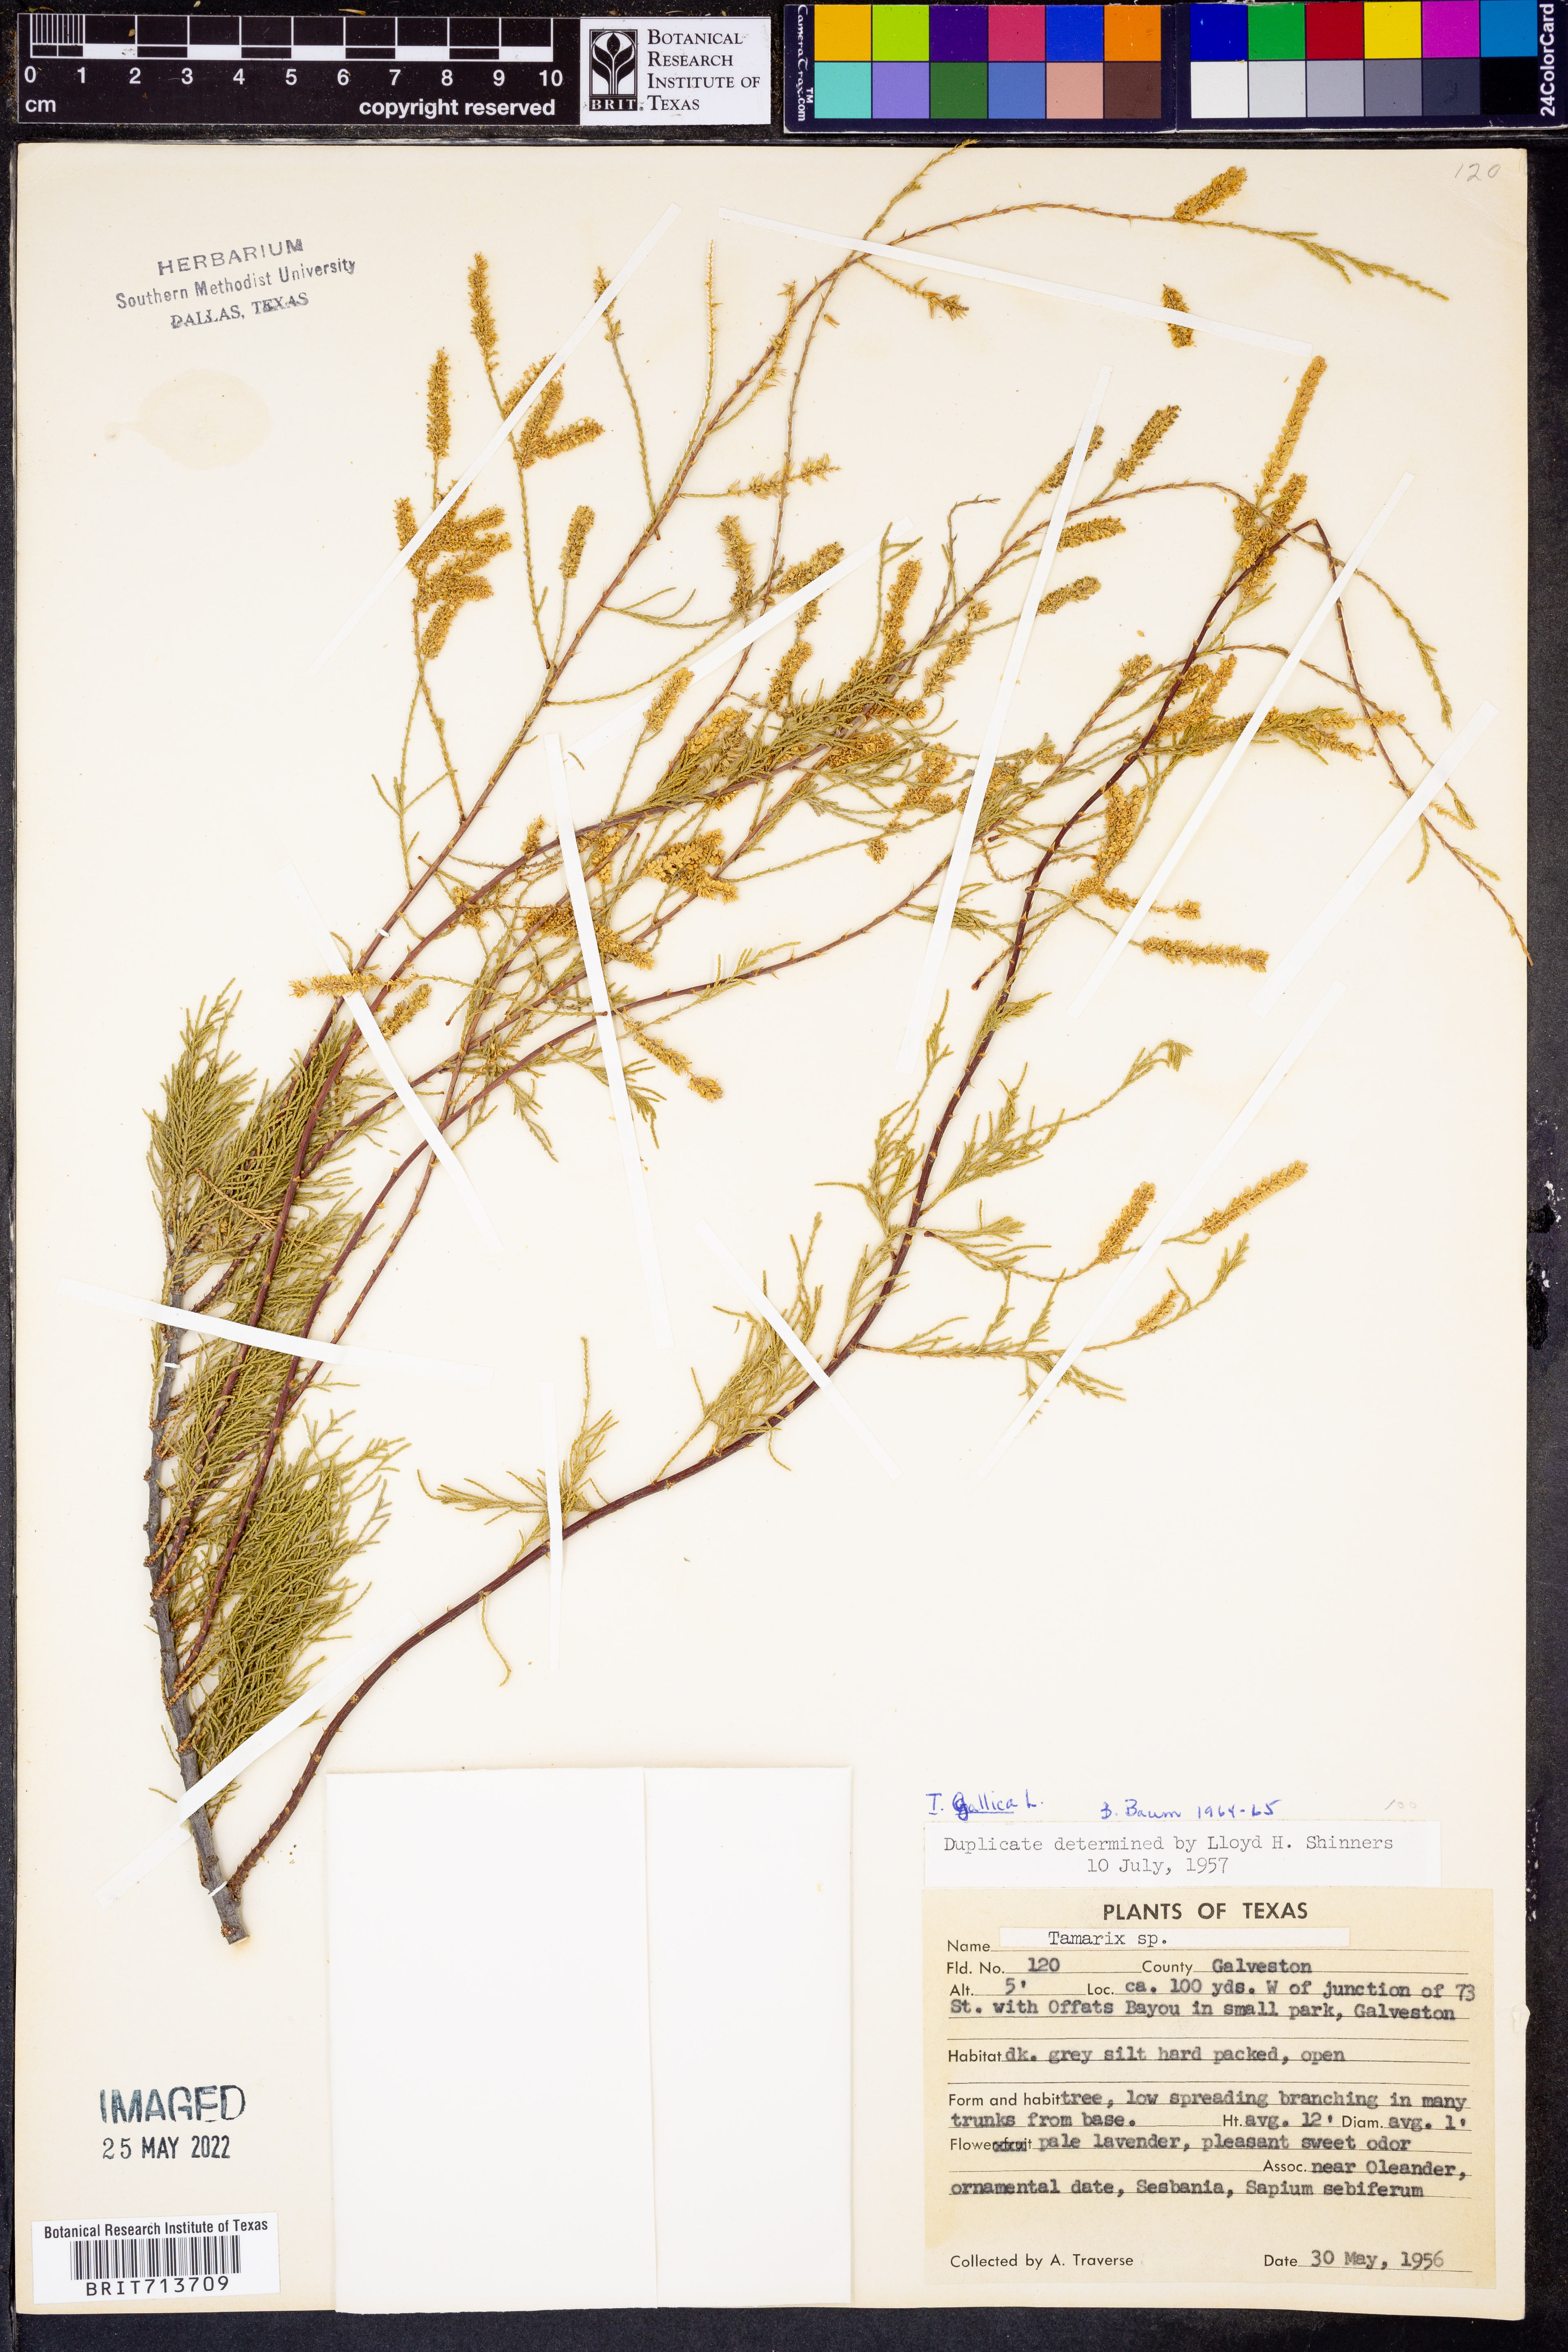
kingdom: Plantae
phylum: Tracheophyta
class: Magnoliopsida
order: Caryophyllales
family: Tamaricaceae
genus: Tamarix
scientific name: Tamarix gallica
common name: Tamarisk
